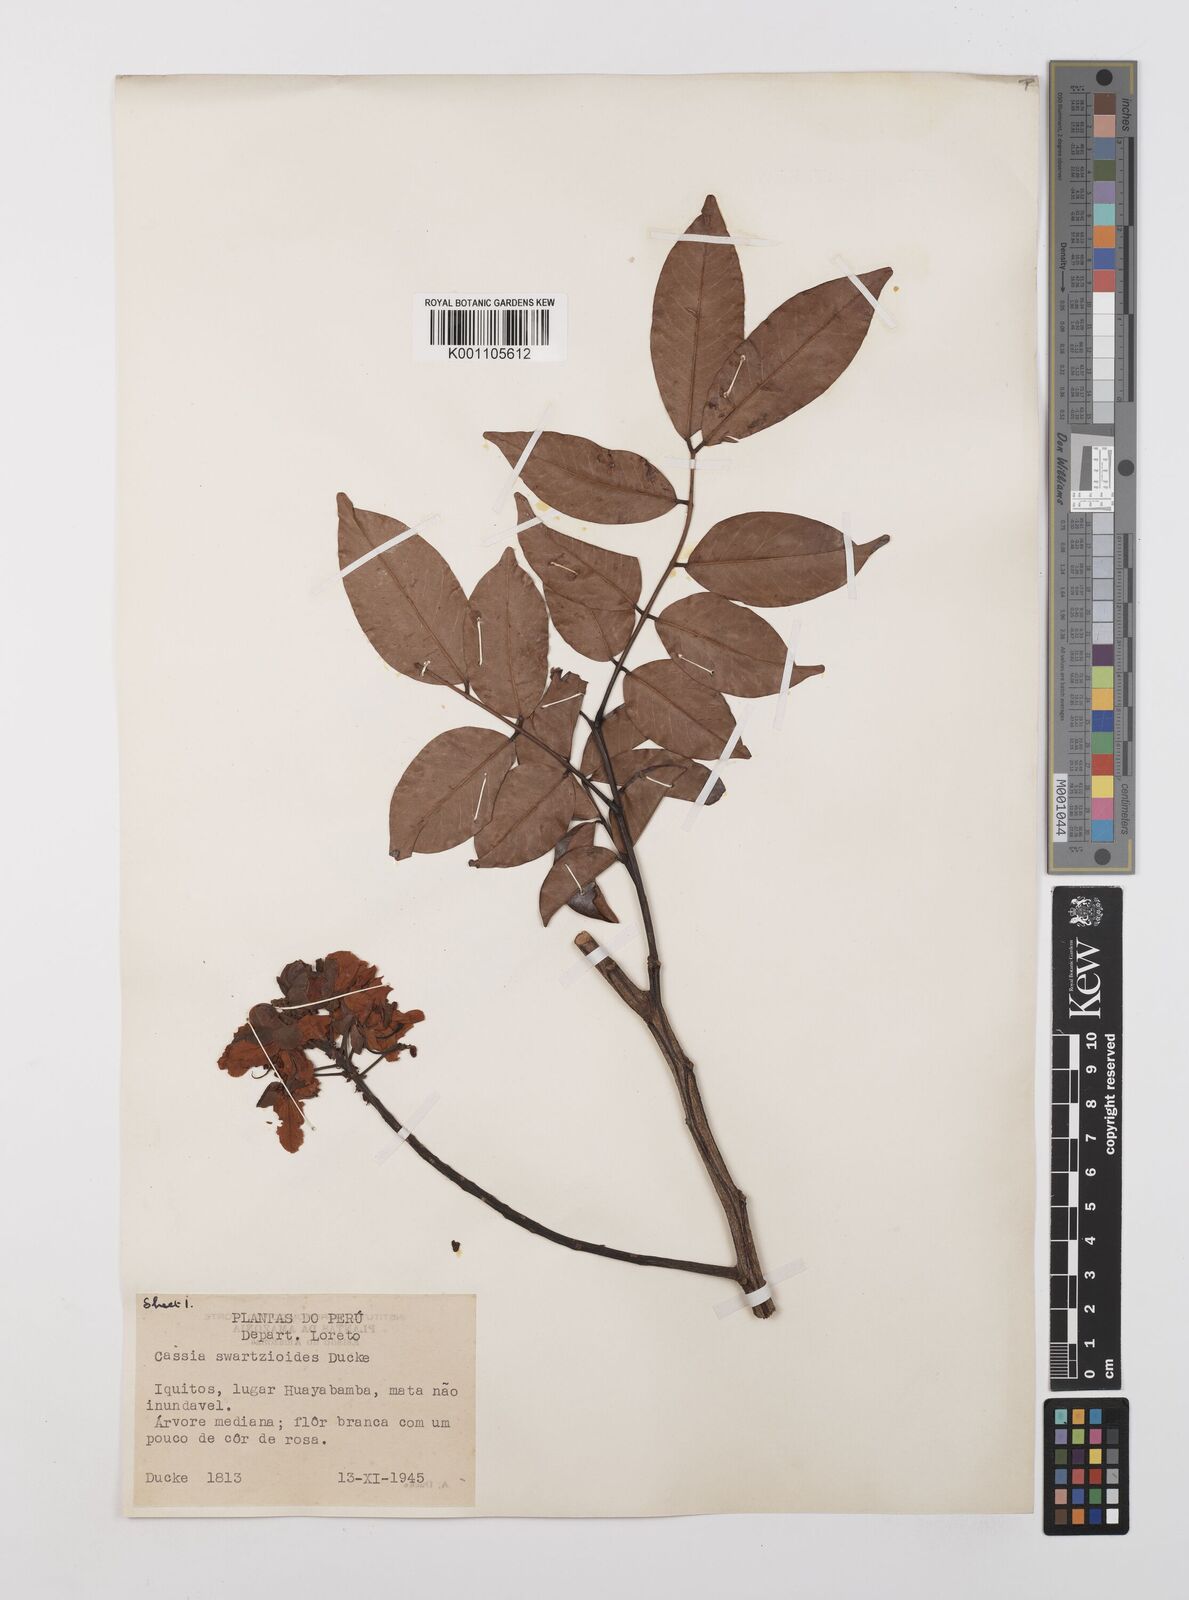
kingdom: Plantae
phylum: Tracheophyta
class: Magnoliopsida
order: Fabales
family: Fabaceae
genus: Cassia
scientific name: Cassia swartzioides
